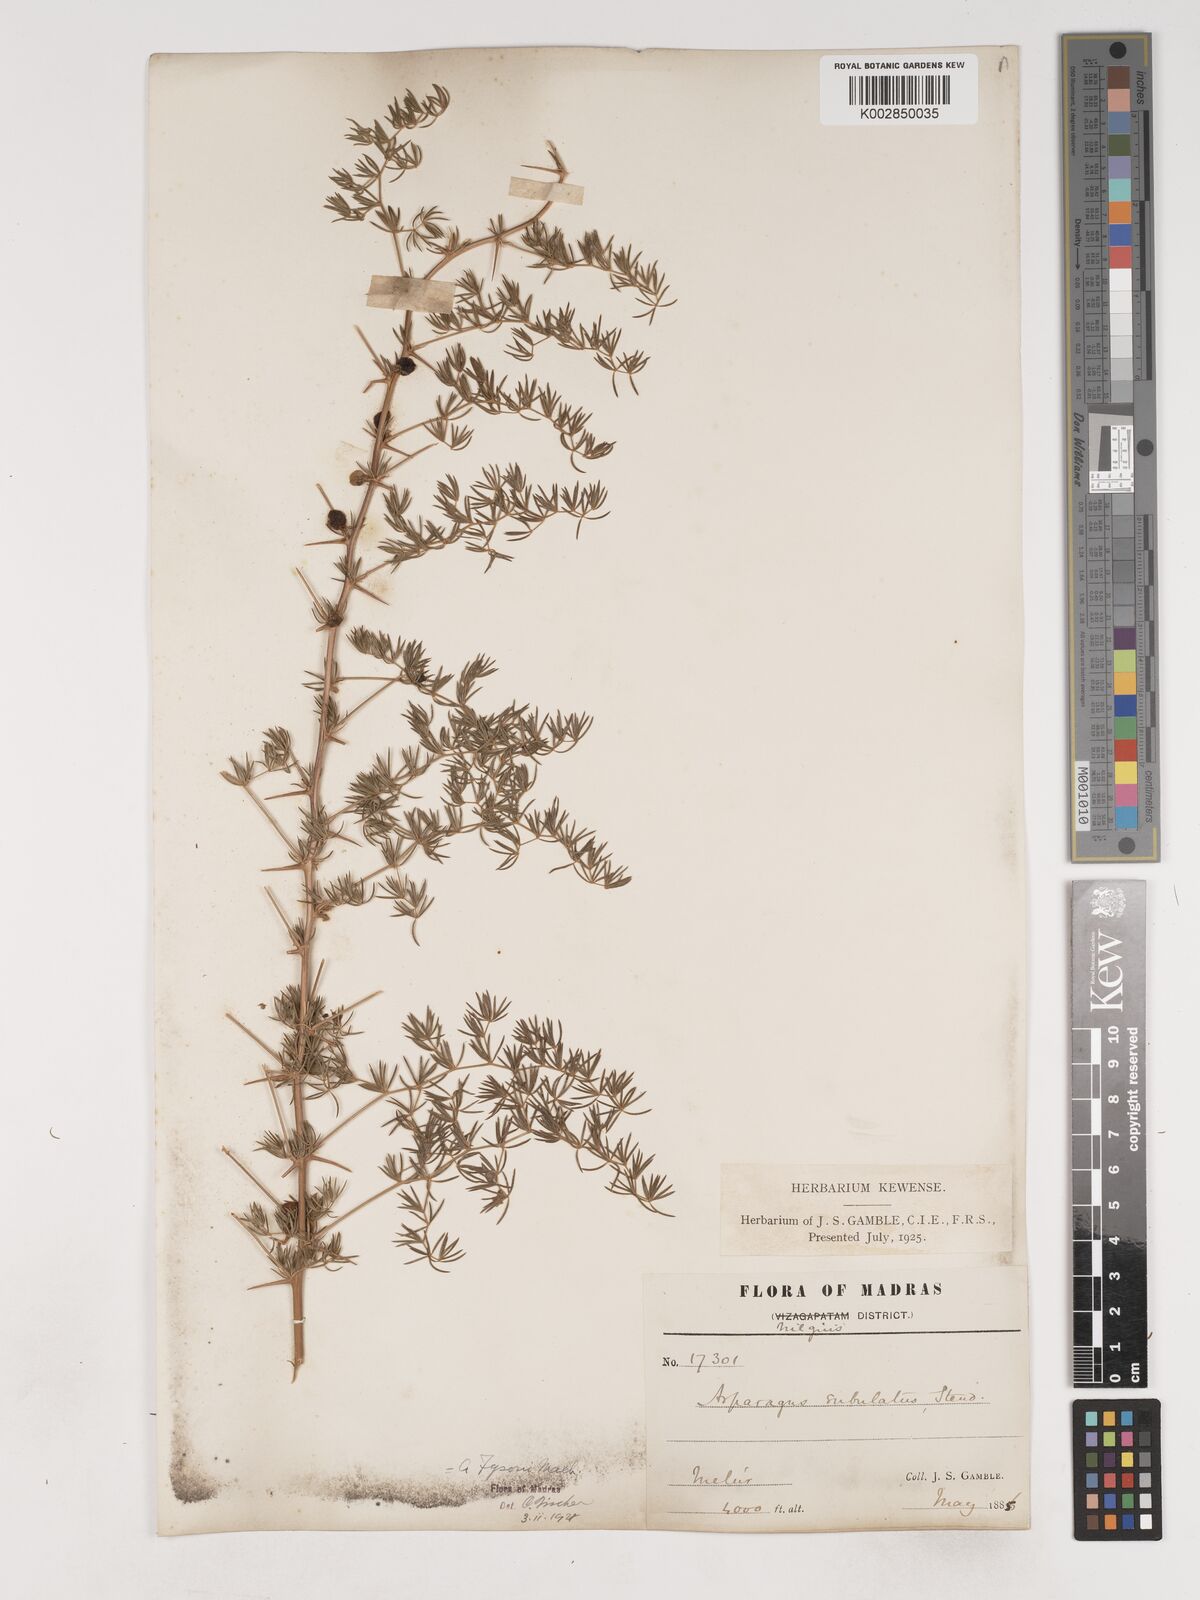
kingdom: Plantae
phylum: Tracheophyta
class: Liliopsida
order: Asparagales
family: Asparagaceae
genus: Asparagus
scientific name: Asparagus fysonii
